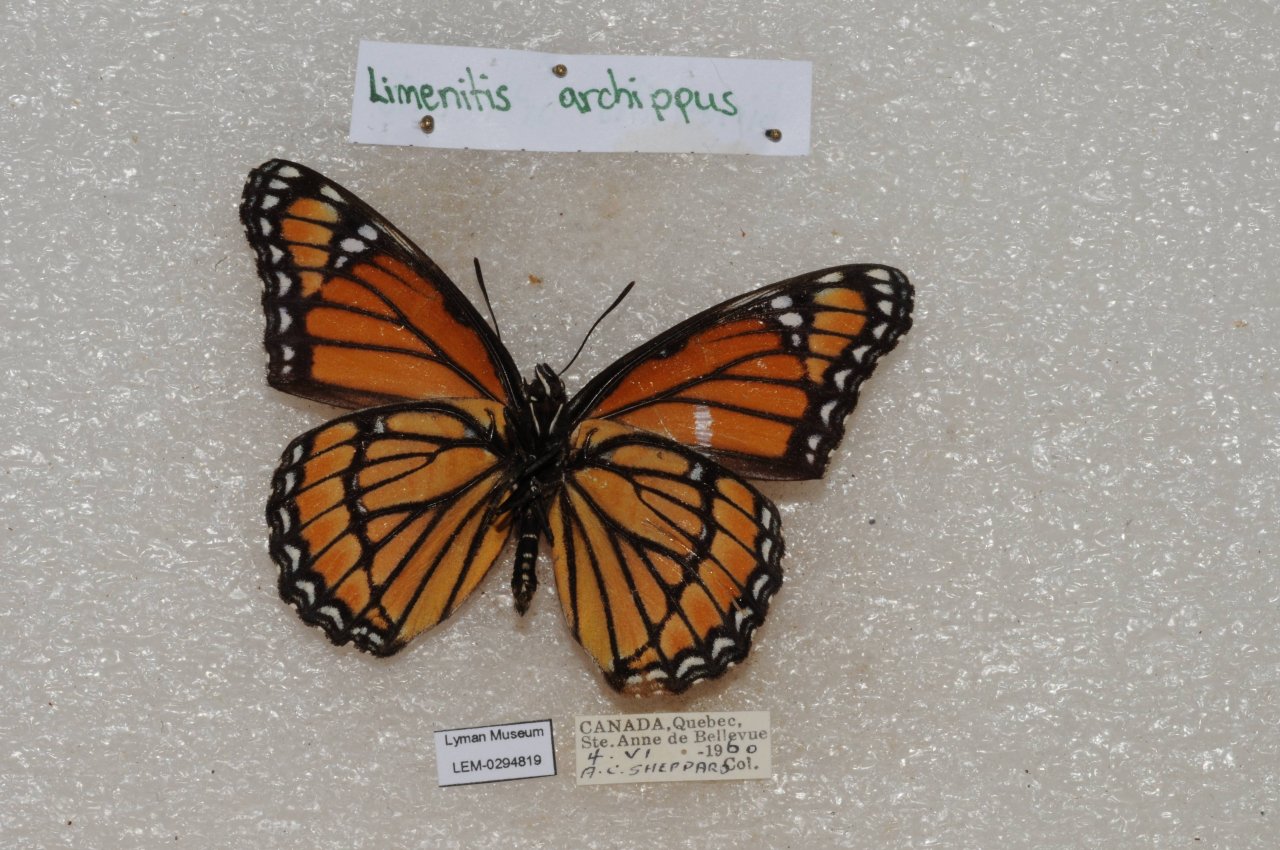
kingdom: Animalia
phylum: Arthropoda
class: Insecta
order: Lepidoptera
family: Nymphalidae
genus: Limenitis
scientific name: Limenitis archippus
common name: Viceroy
